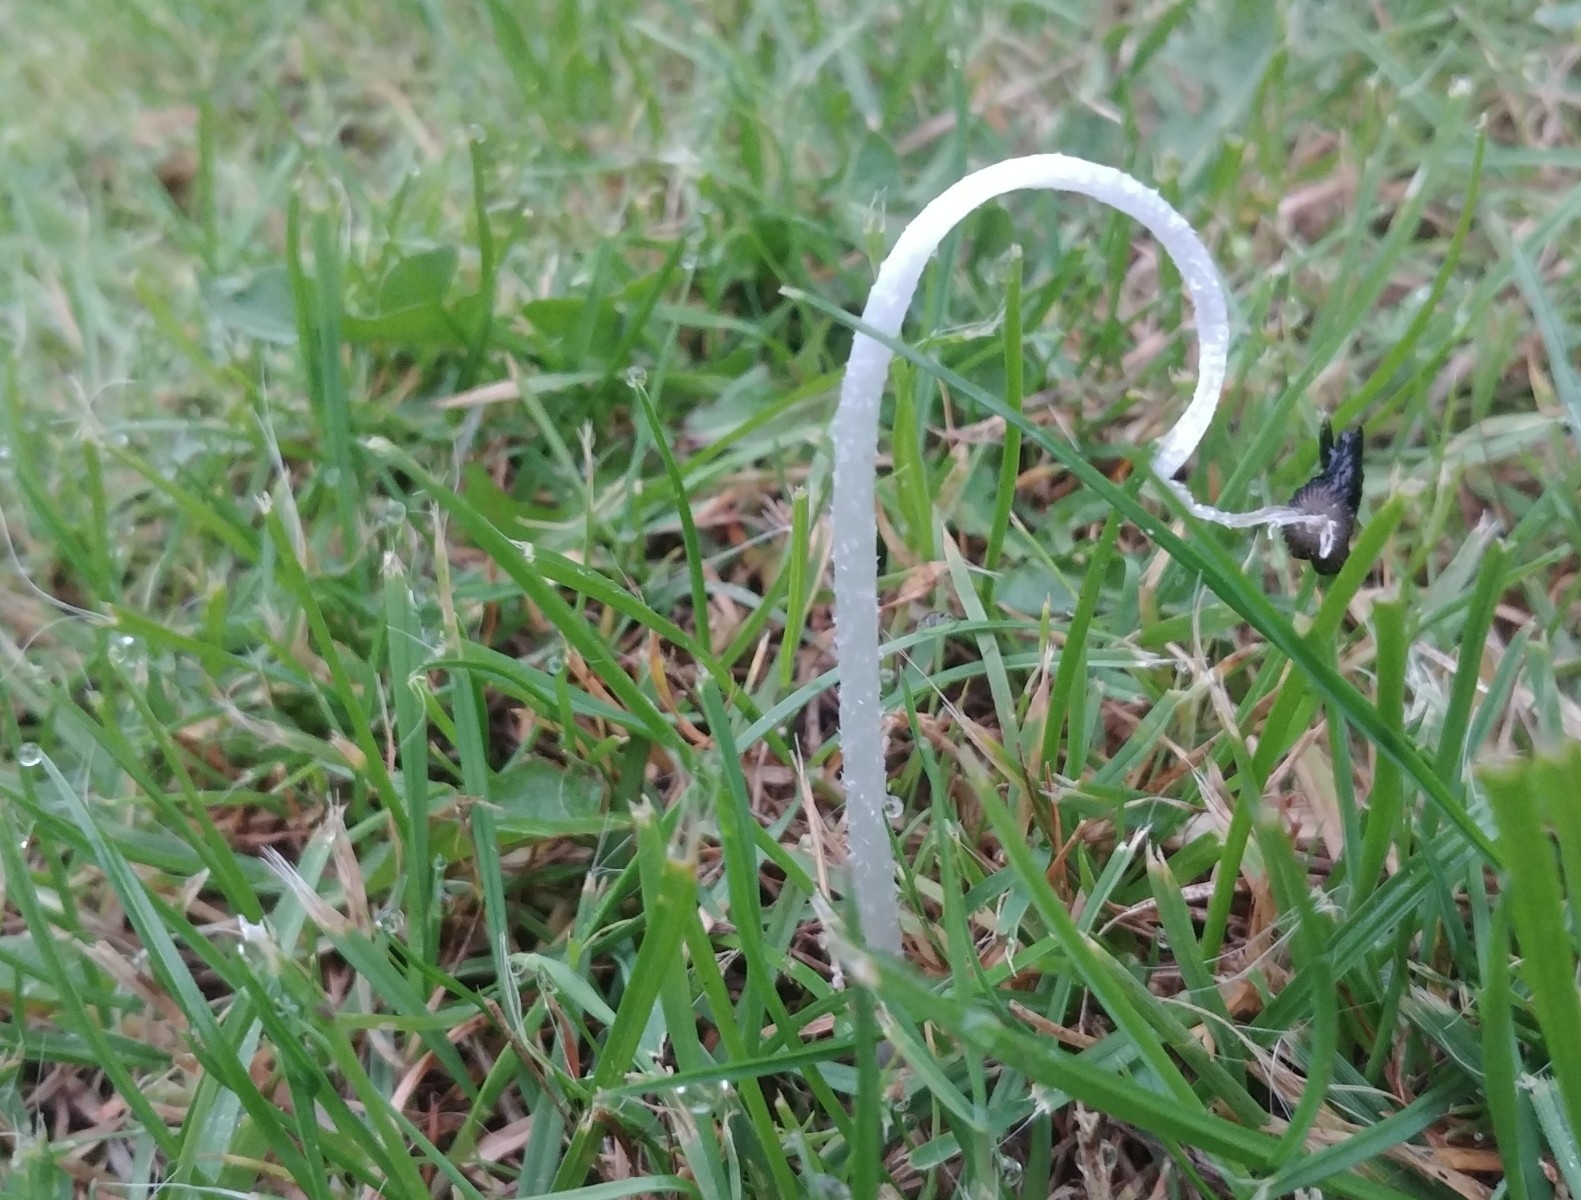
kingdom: Fungi
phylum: Basidiomycota
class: Agaricomycetes
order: Agaricales
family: Psathyrellaceae
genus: Coprinopsis
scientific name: Coprinopsis lagopus
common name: dunstokket blækhat
